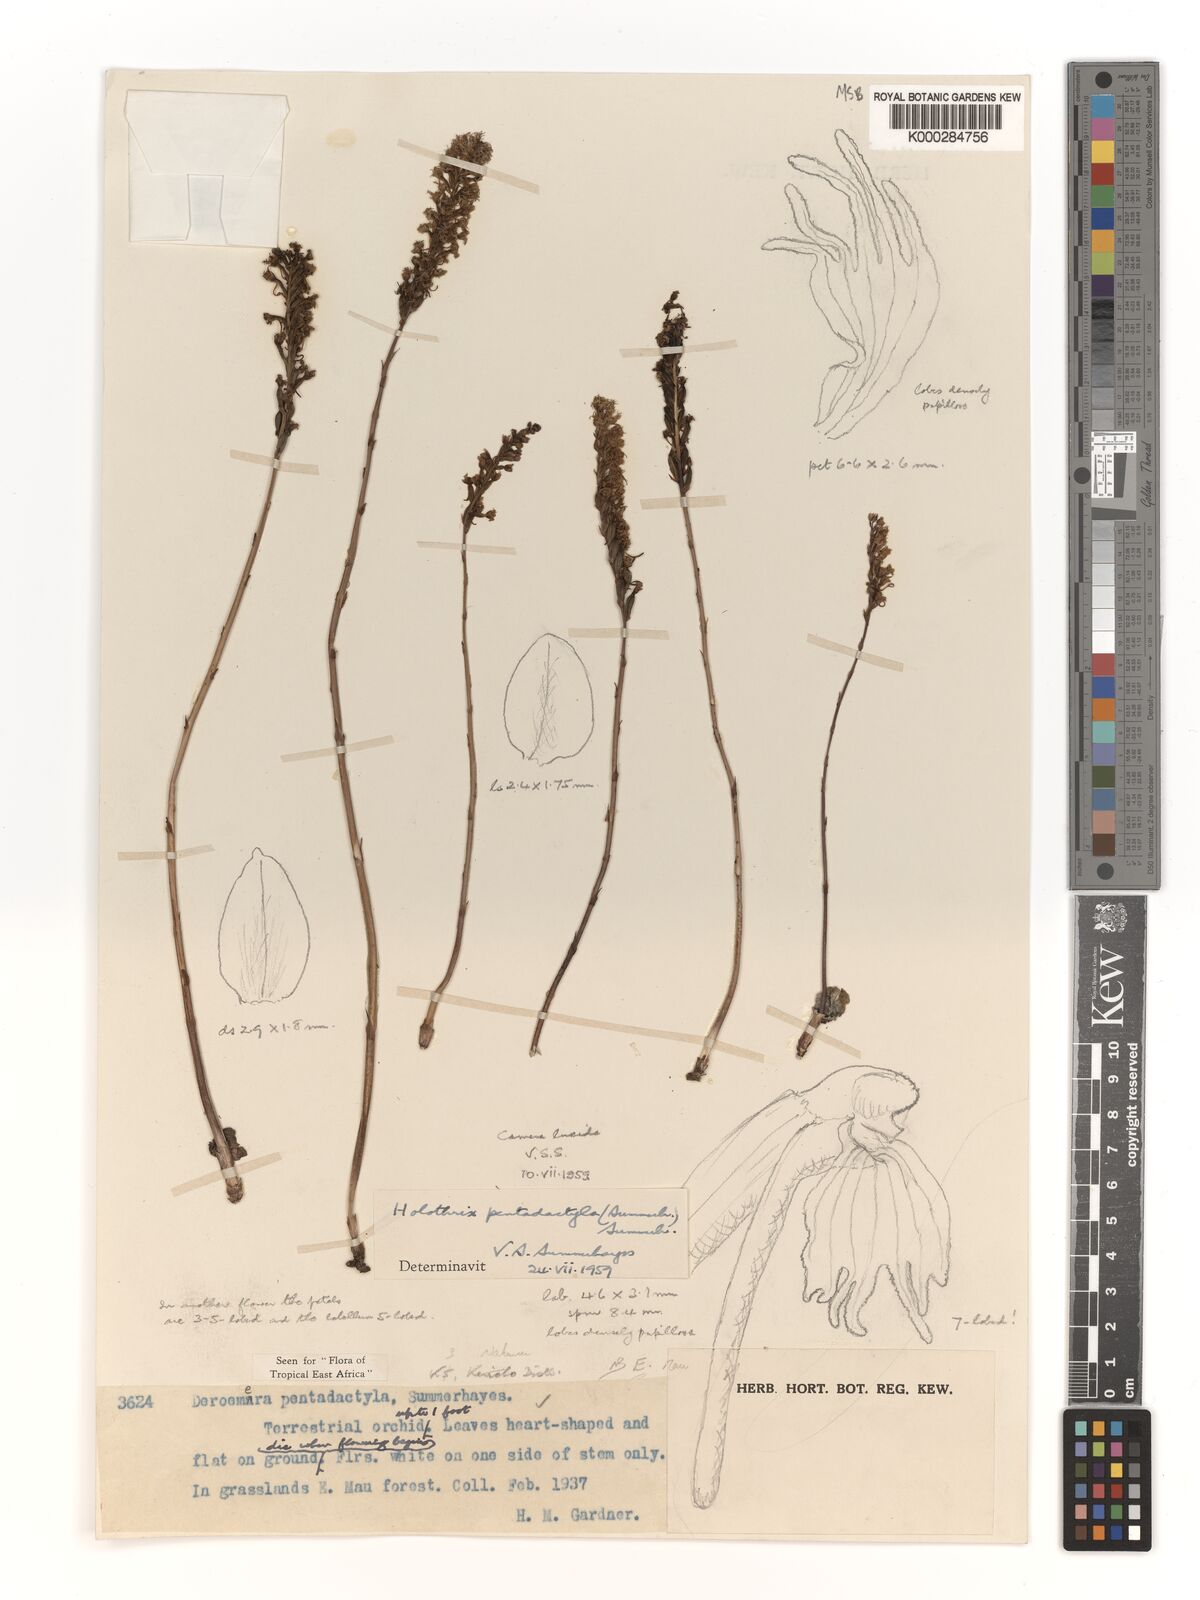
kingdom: Plantae
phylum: Tracheophyta
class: Liliopsida
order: Asparagales
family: Orchidaceae
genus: Holothrix
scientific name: Holothrix pentadactyla
